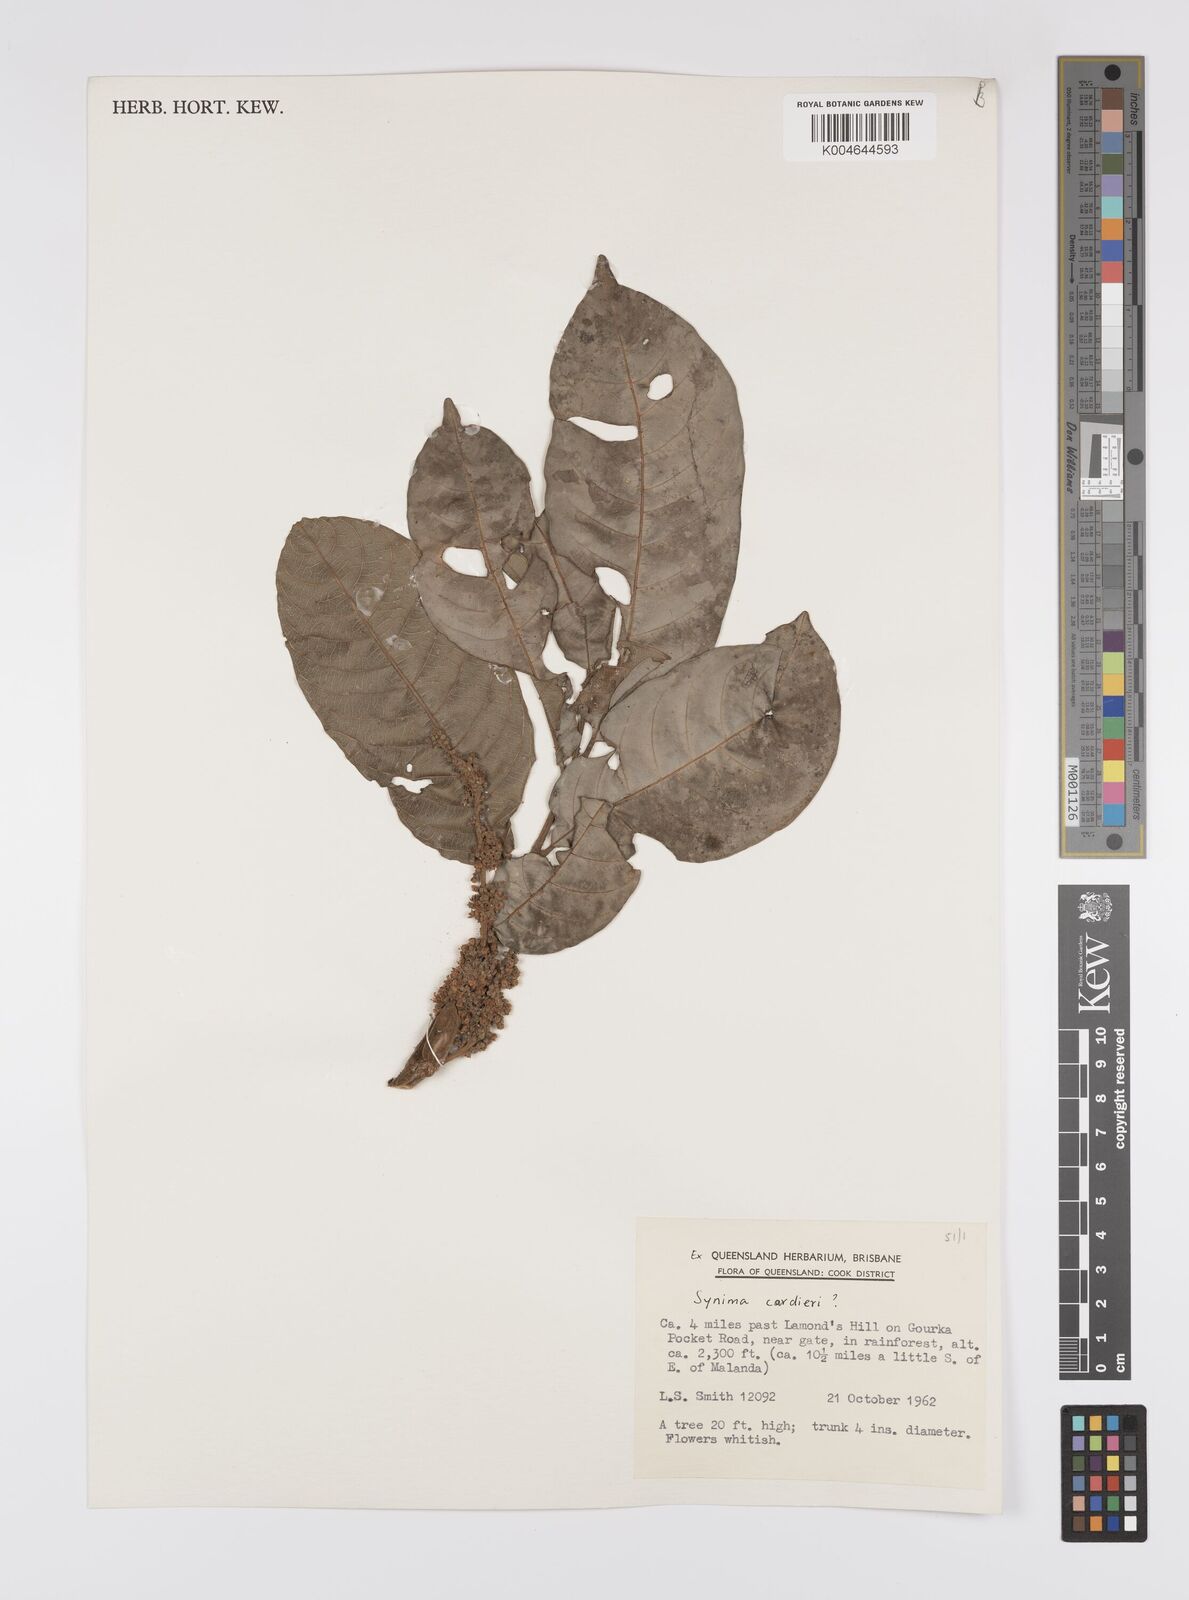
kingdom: Plantae
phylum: Tracheophyta
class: Magnoliopsida
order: Sapindales
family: Sapindaceae
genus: Synima
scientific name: Synima
